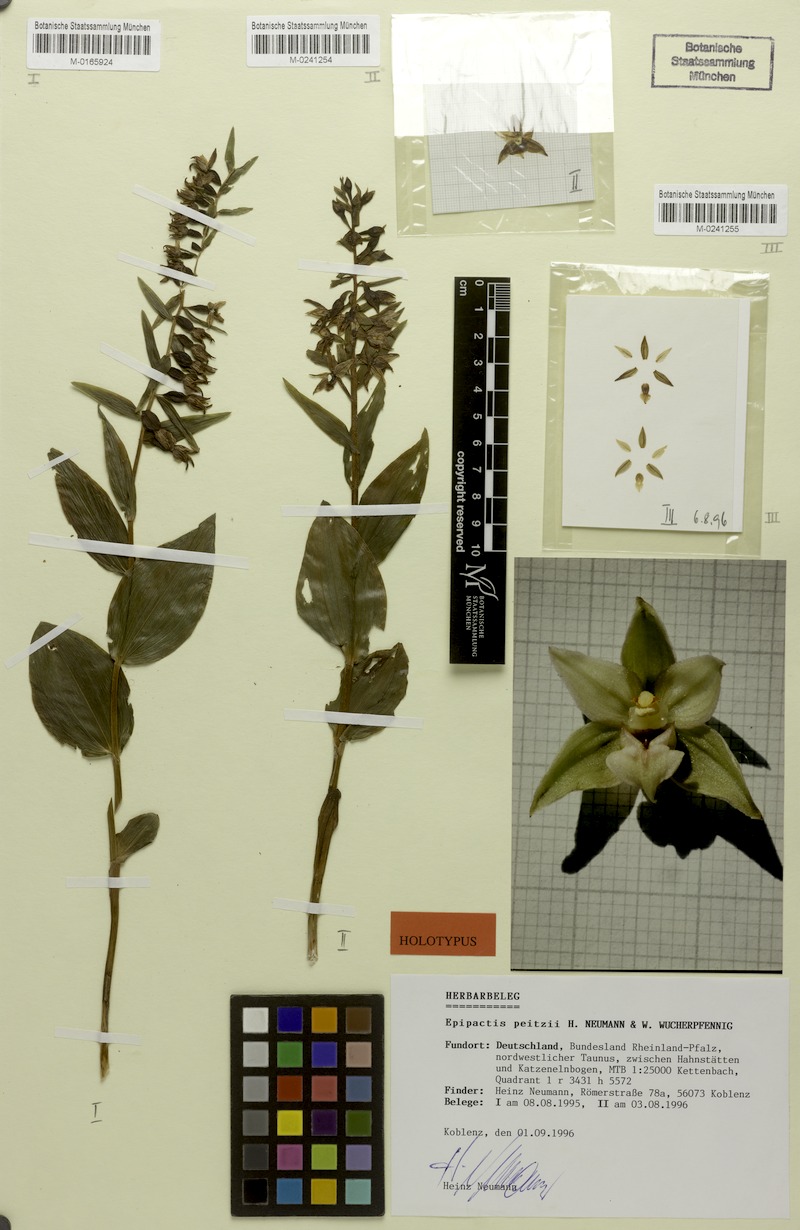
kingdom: Plantae
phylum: Tracheophyta
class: Liliopsida
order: Asparagales
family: Orchidaceae
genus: Epipactis
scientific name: Epipactis leptochila
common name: Narrow-lipped helleborine
